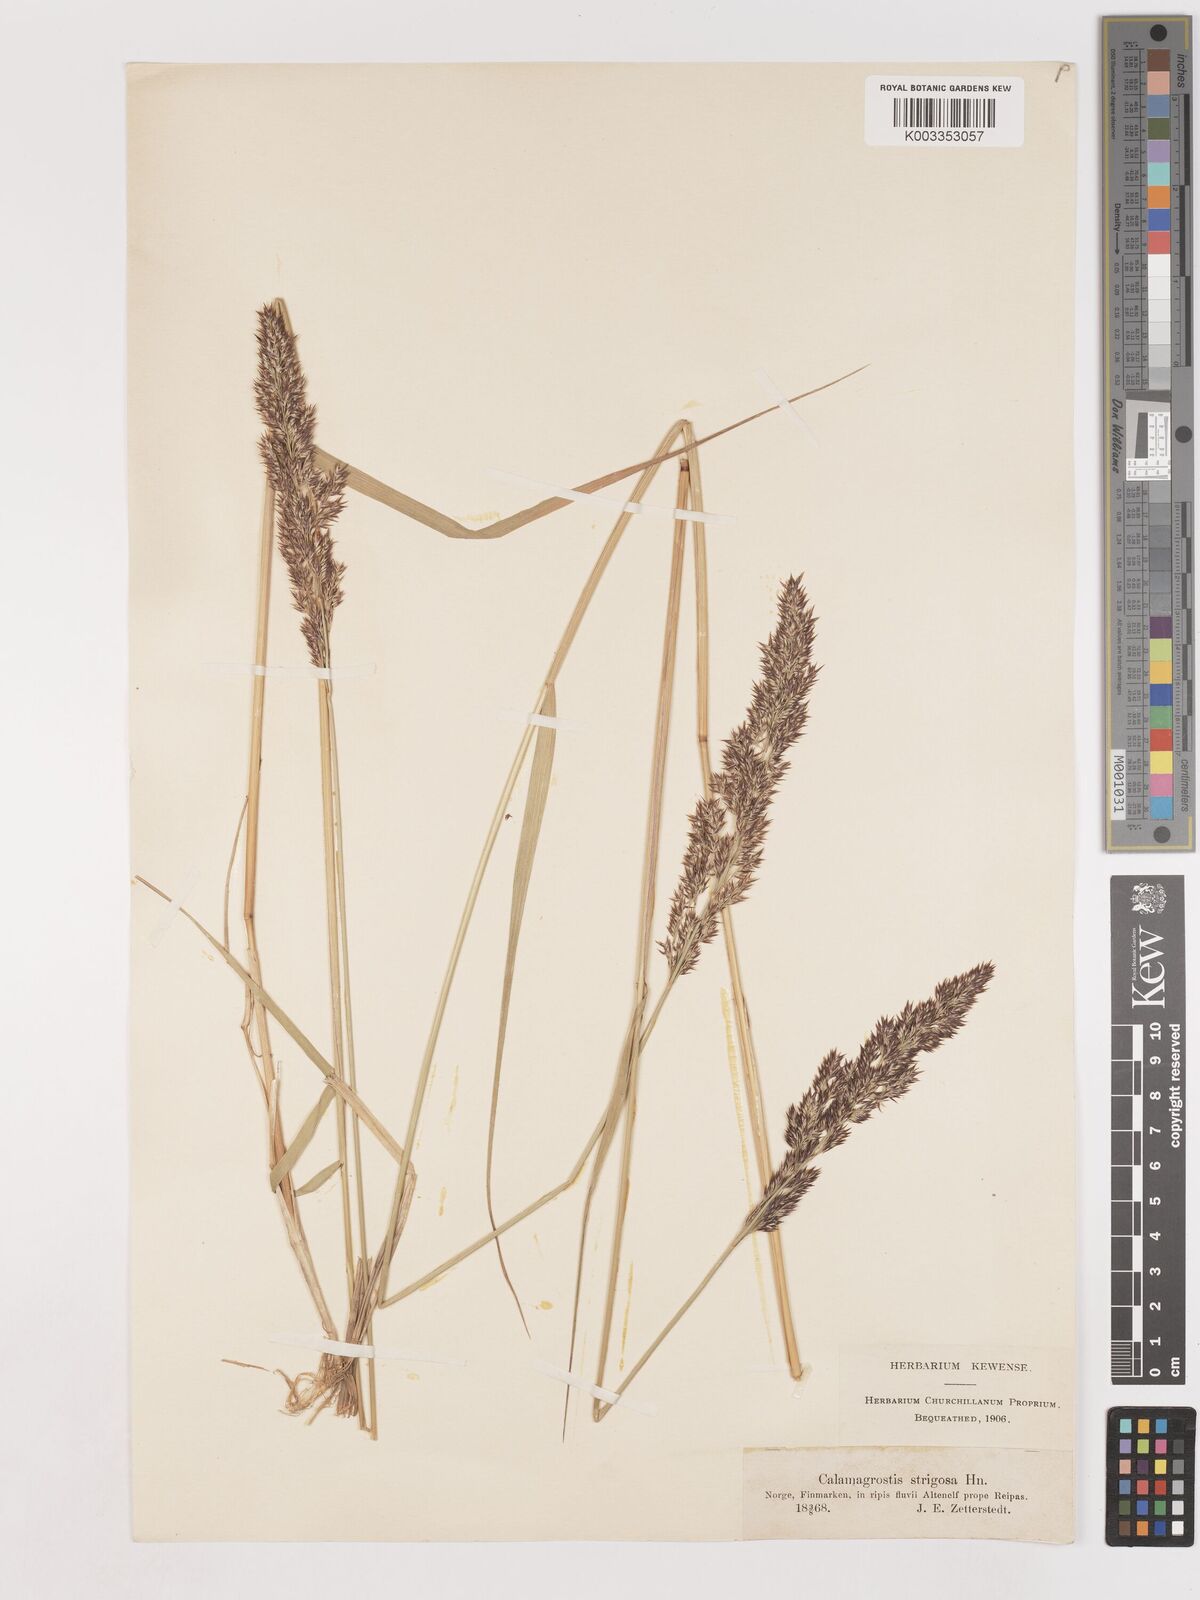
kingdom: Plantae
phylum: Tracheophyta
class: Liliopsida
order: Poales
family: Poaceae
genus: Calamagrostis
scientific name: Calamagrostis epigejos
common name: Wood small-reed
